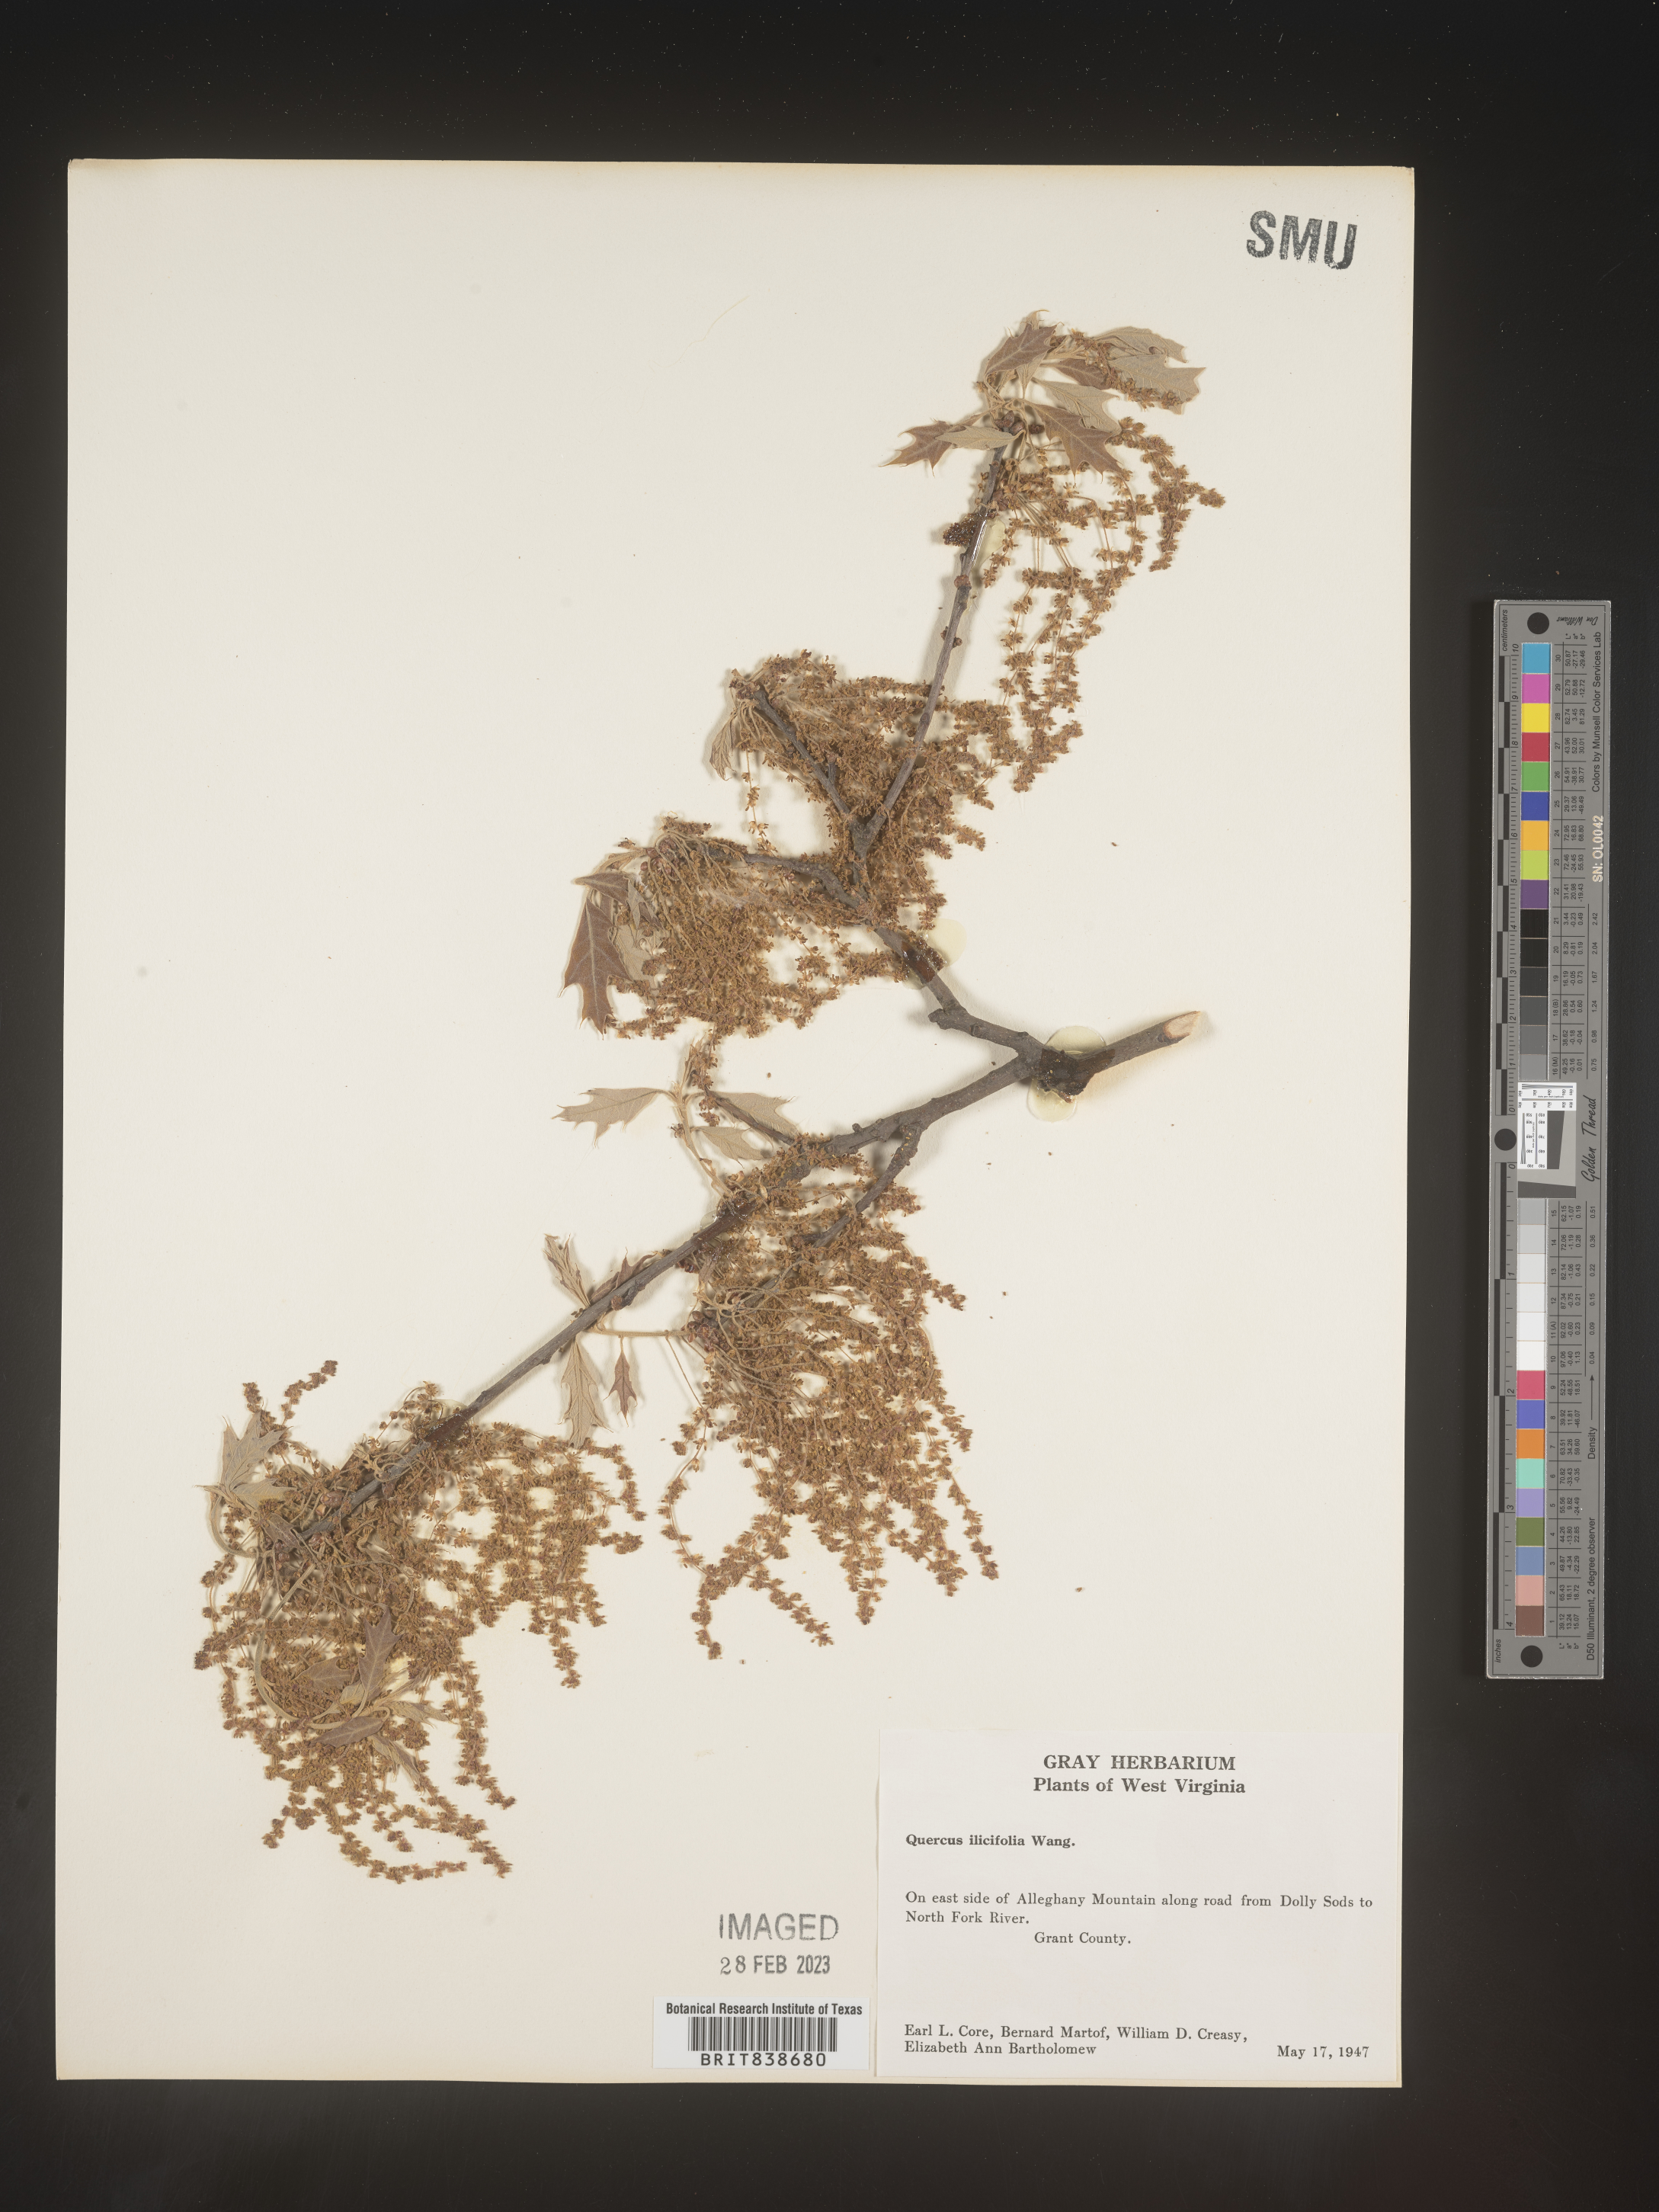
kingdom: Plantae
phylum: Tracheophyta
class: Magnoliopsida
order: Fagales
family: Fagaceae
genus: Quercus
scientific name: Quercus ilicifolia
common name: Bear oak
